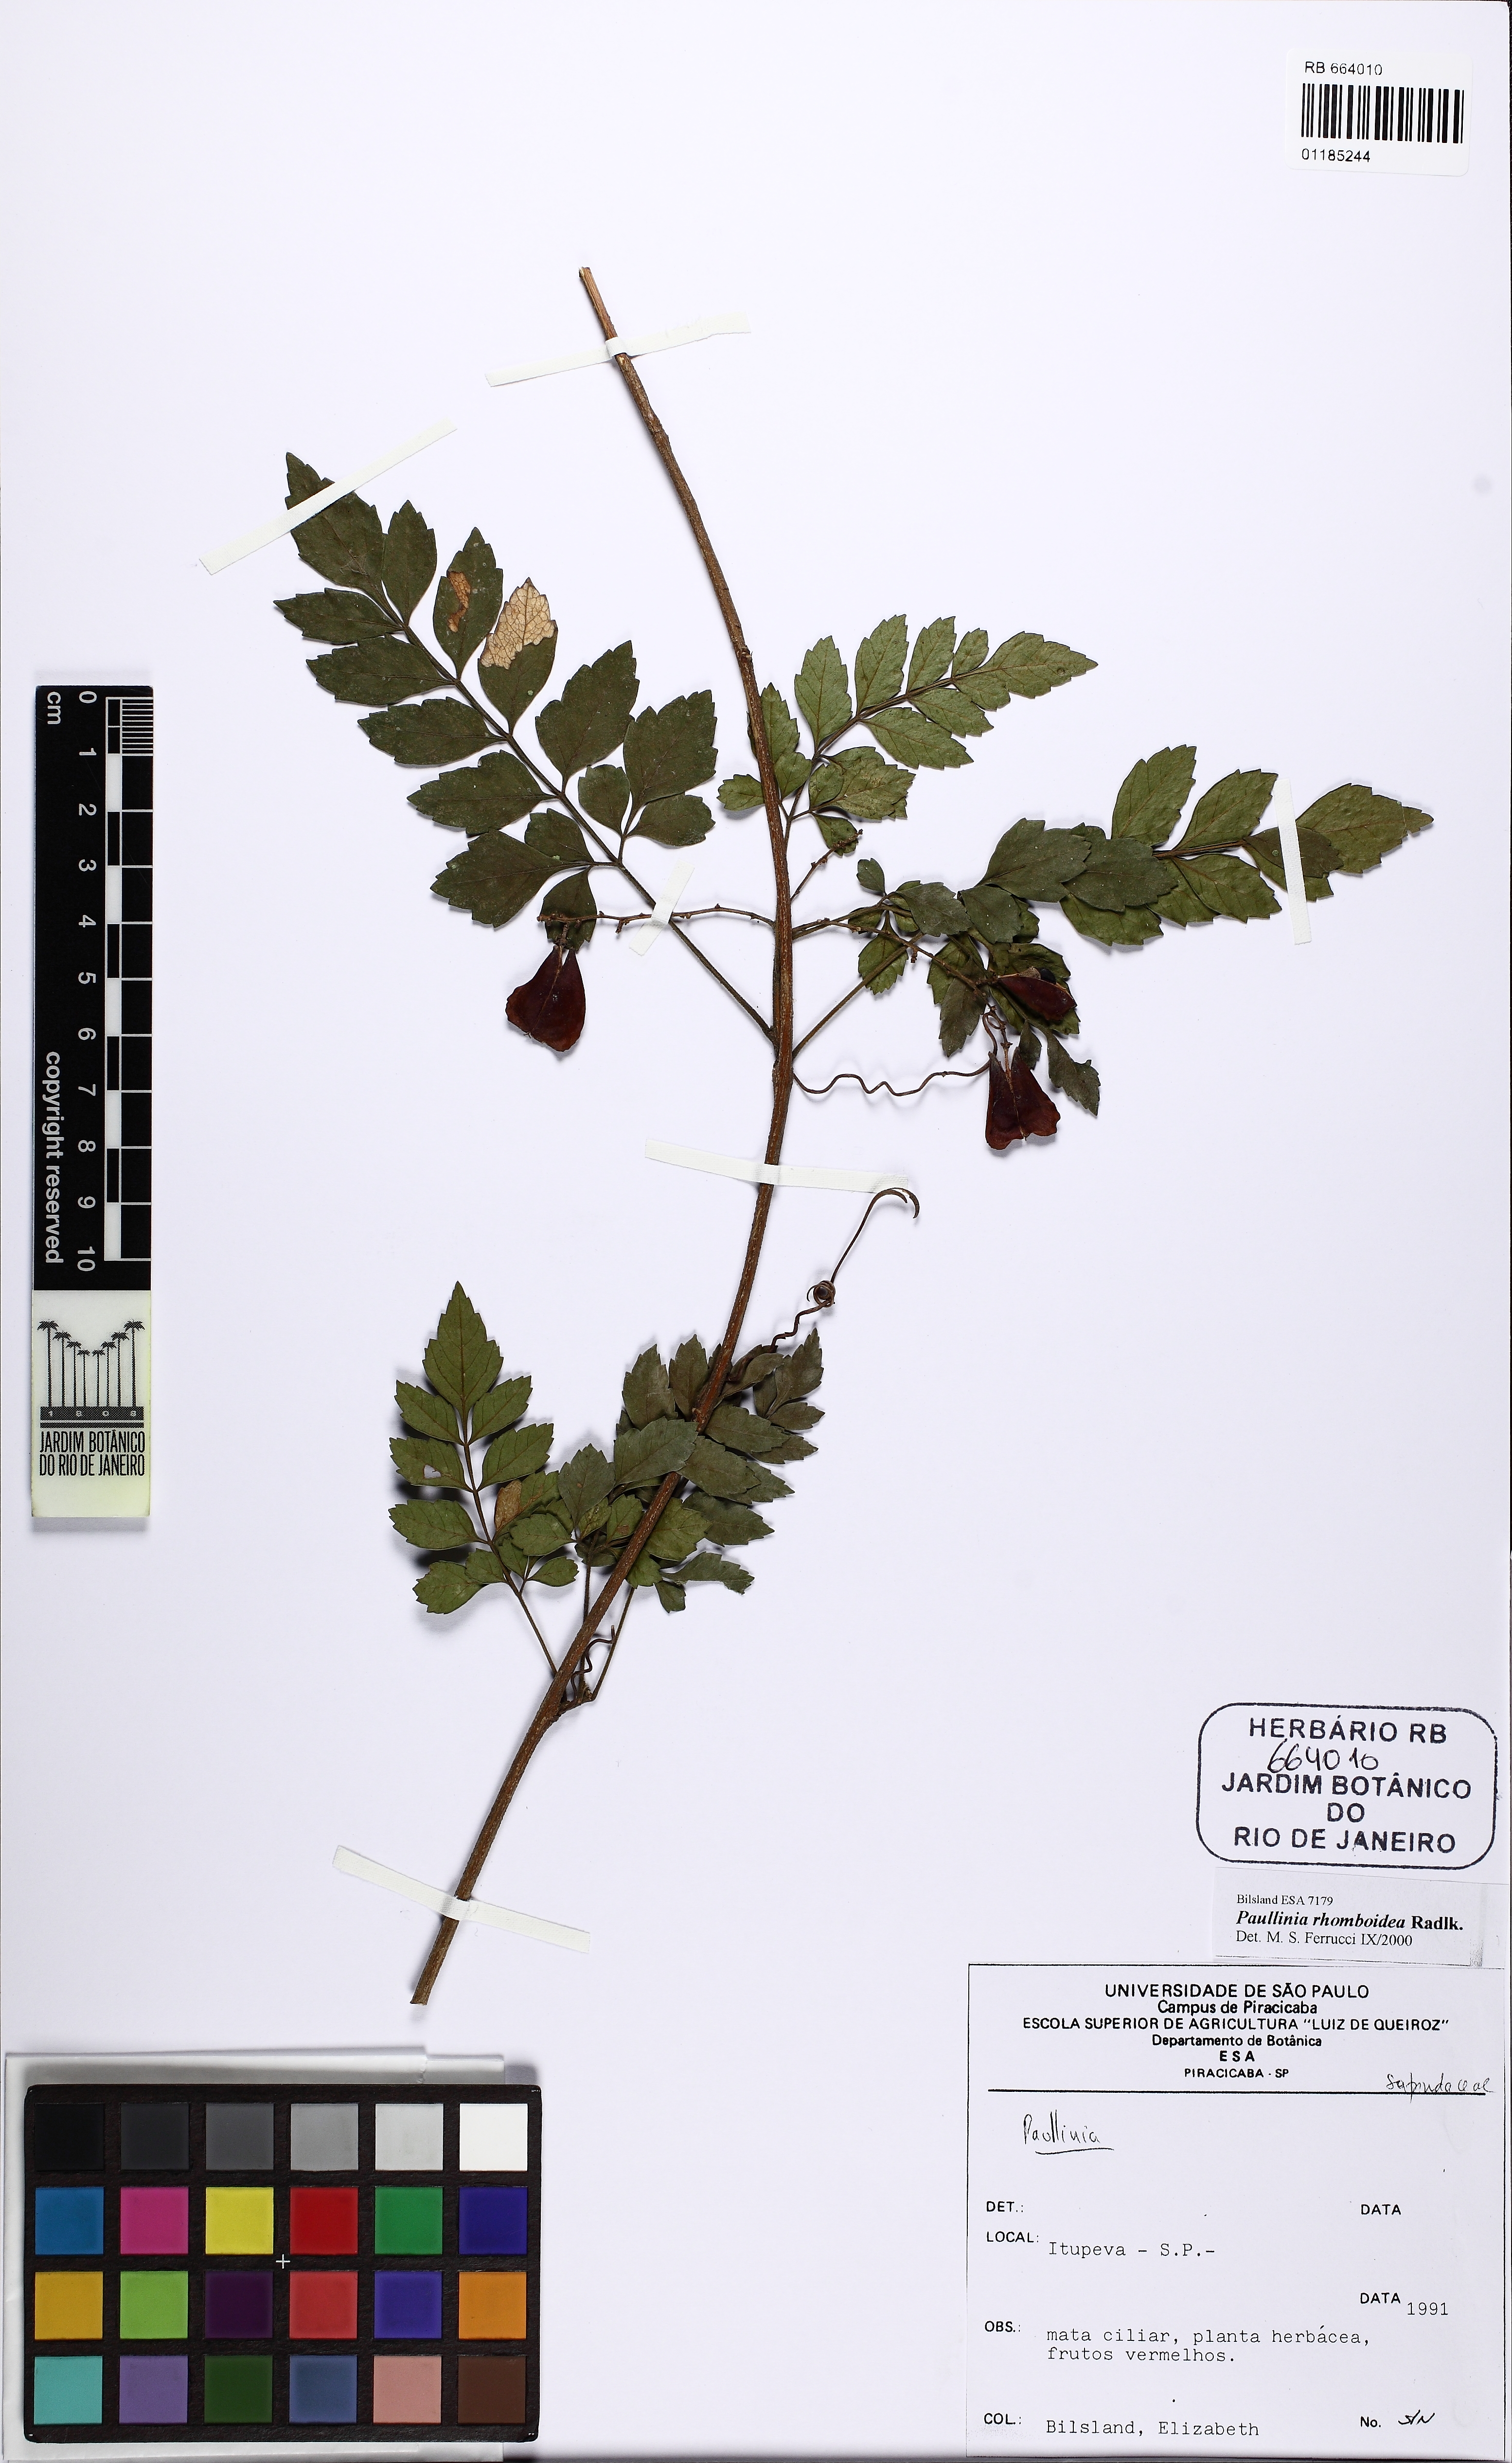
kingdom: Plantae
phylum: Tracheophyta
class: Magnoliopsida
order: Sapindales
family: Sapindaceae
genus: Paullinia
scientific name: Paullinia rhomboidea
